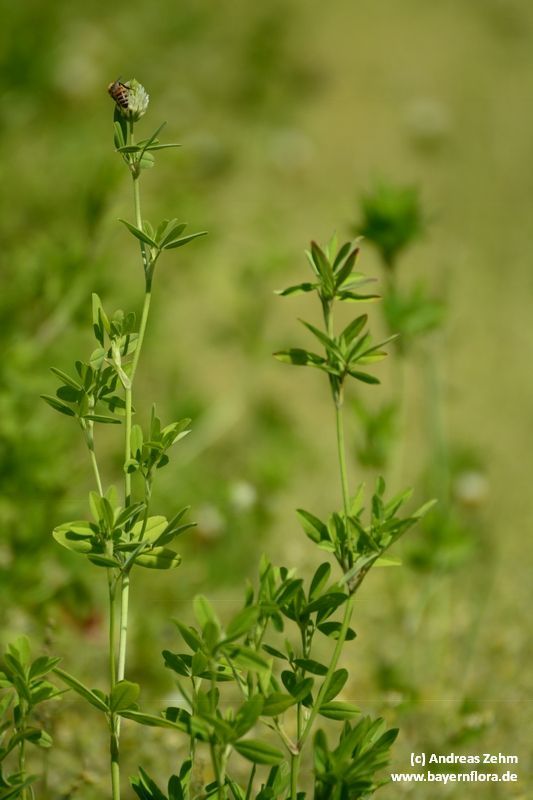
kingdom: Plantae
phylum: Tracheophyta
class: Magnoliopsida
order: Fabales
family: Fabaceae
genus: Trifolium
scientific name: Trifolium alexandrinum
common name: Egyptian clover
